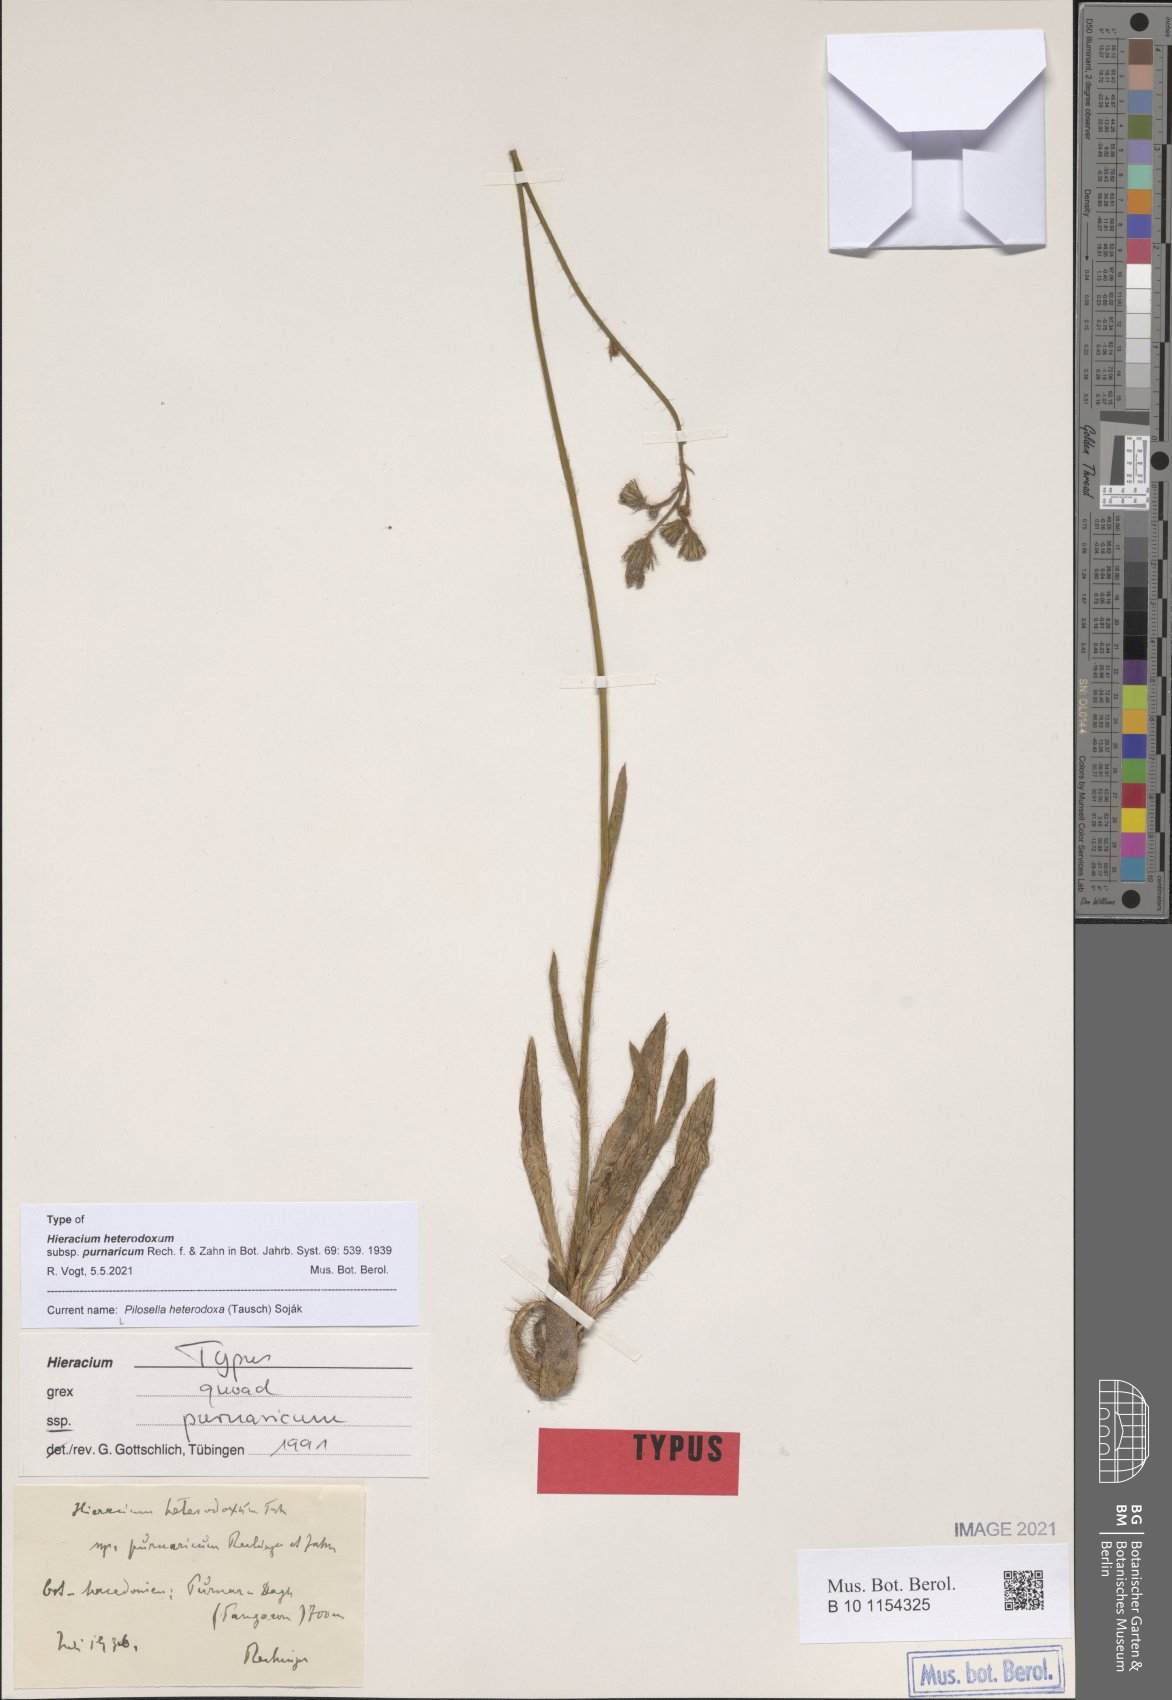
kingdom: Plantae
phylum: Tracheophyta
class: Magnoliopsida
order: Asterales
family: Asteraceae
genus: Pilosella
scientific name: Pilosella heterodoxa
